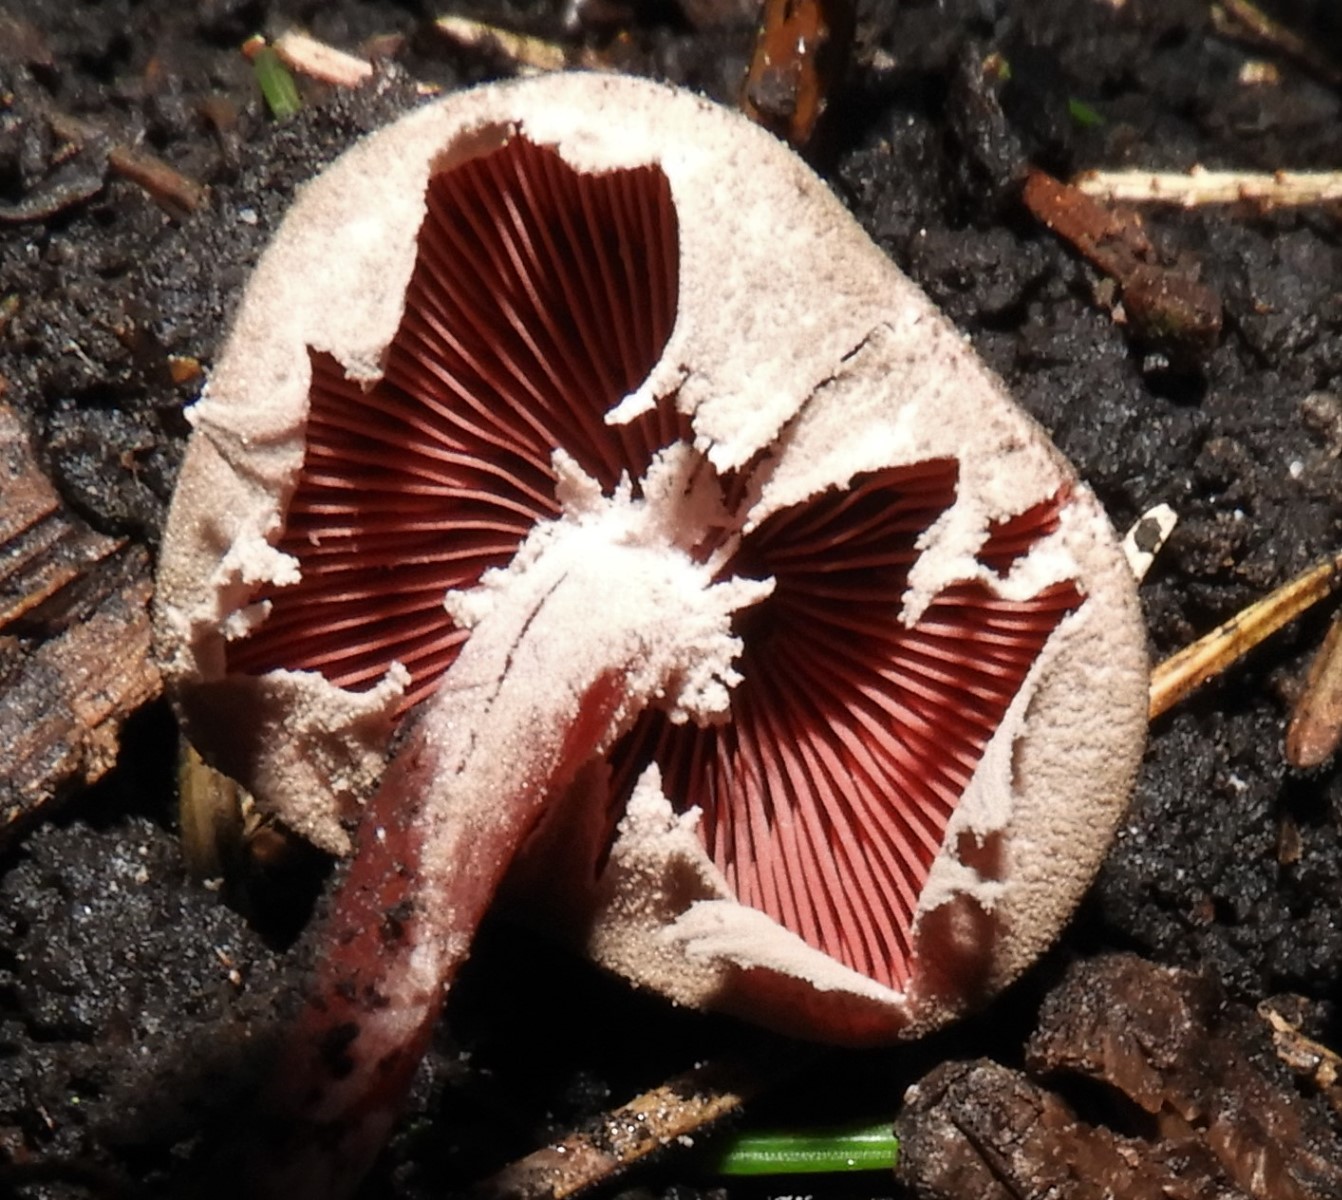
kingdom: Fungi
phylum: Basidiomycota
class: Agaricomycetes
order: Agaricales
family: Agaricaceae
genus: Melanophyllum
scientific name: Melanophyllum haematospermum
